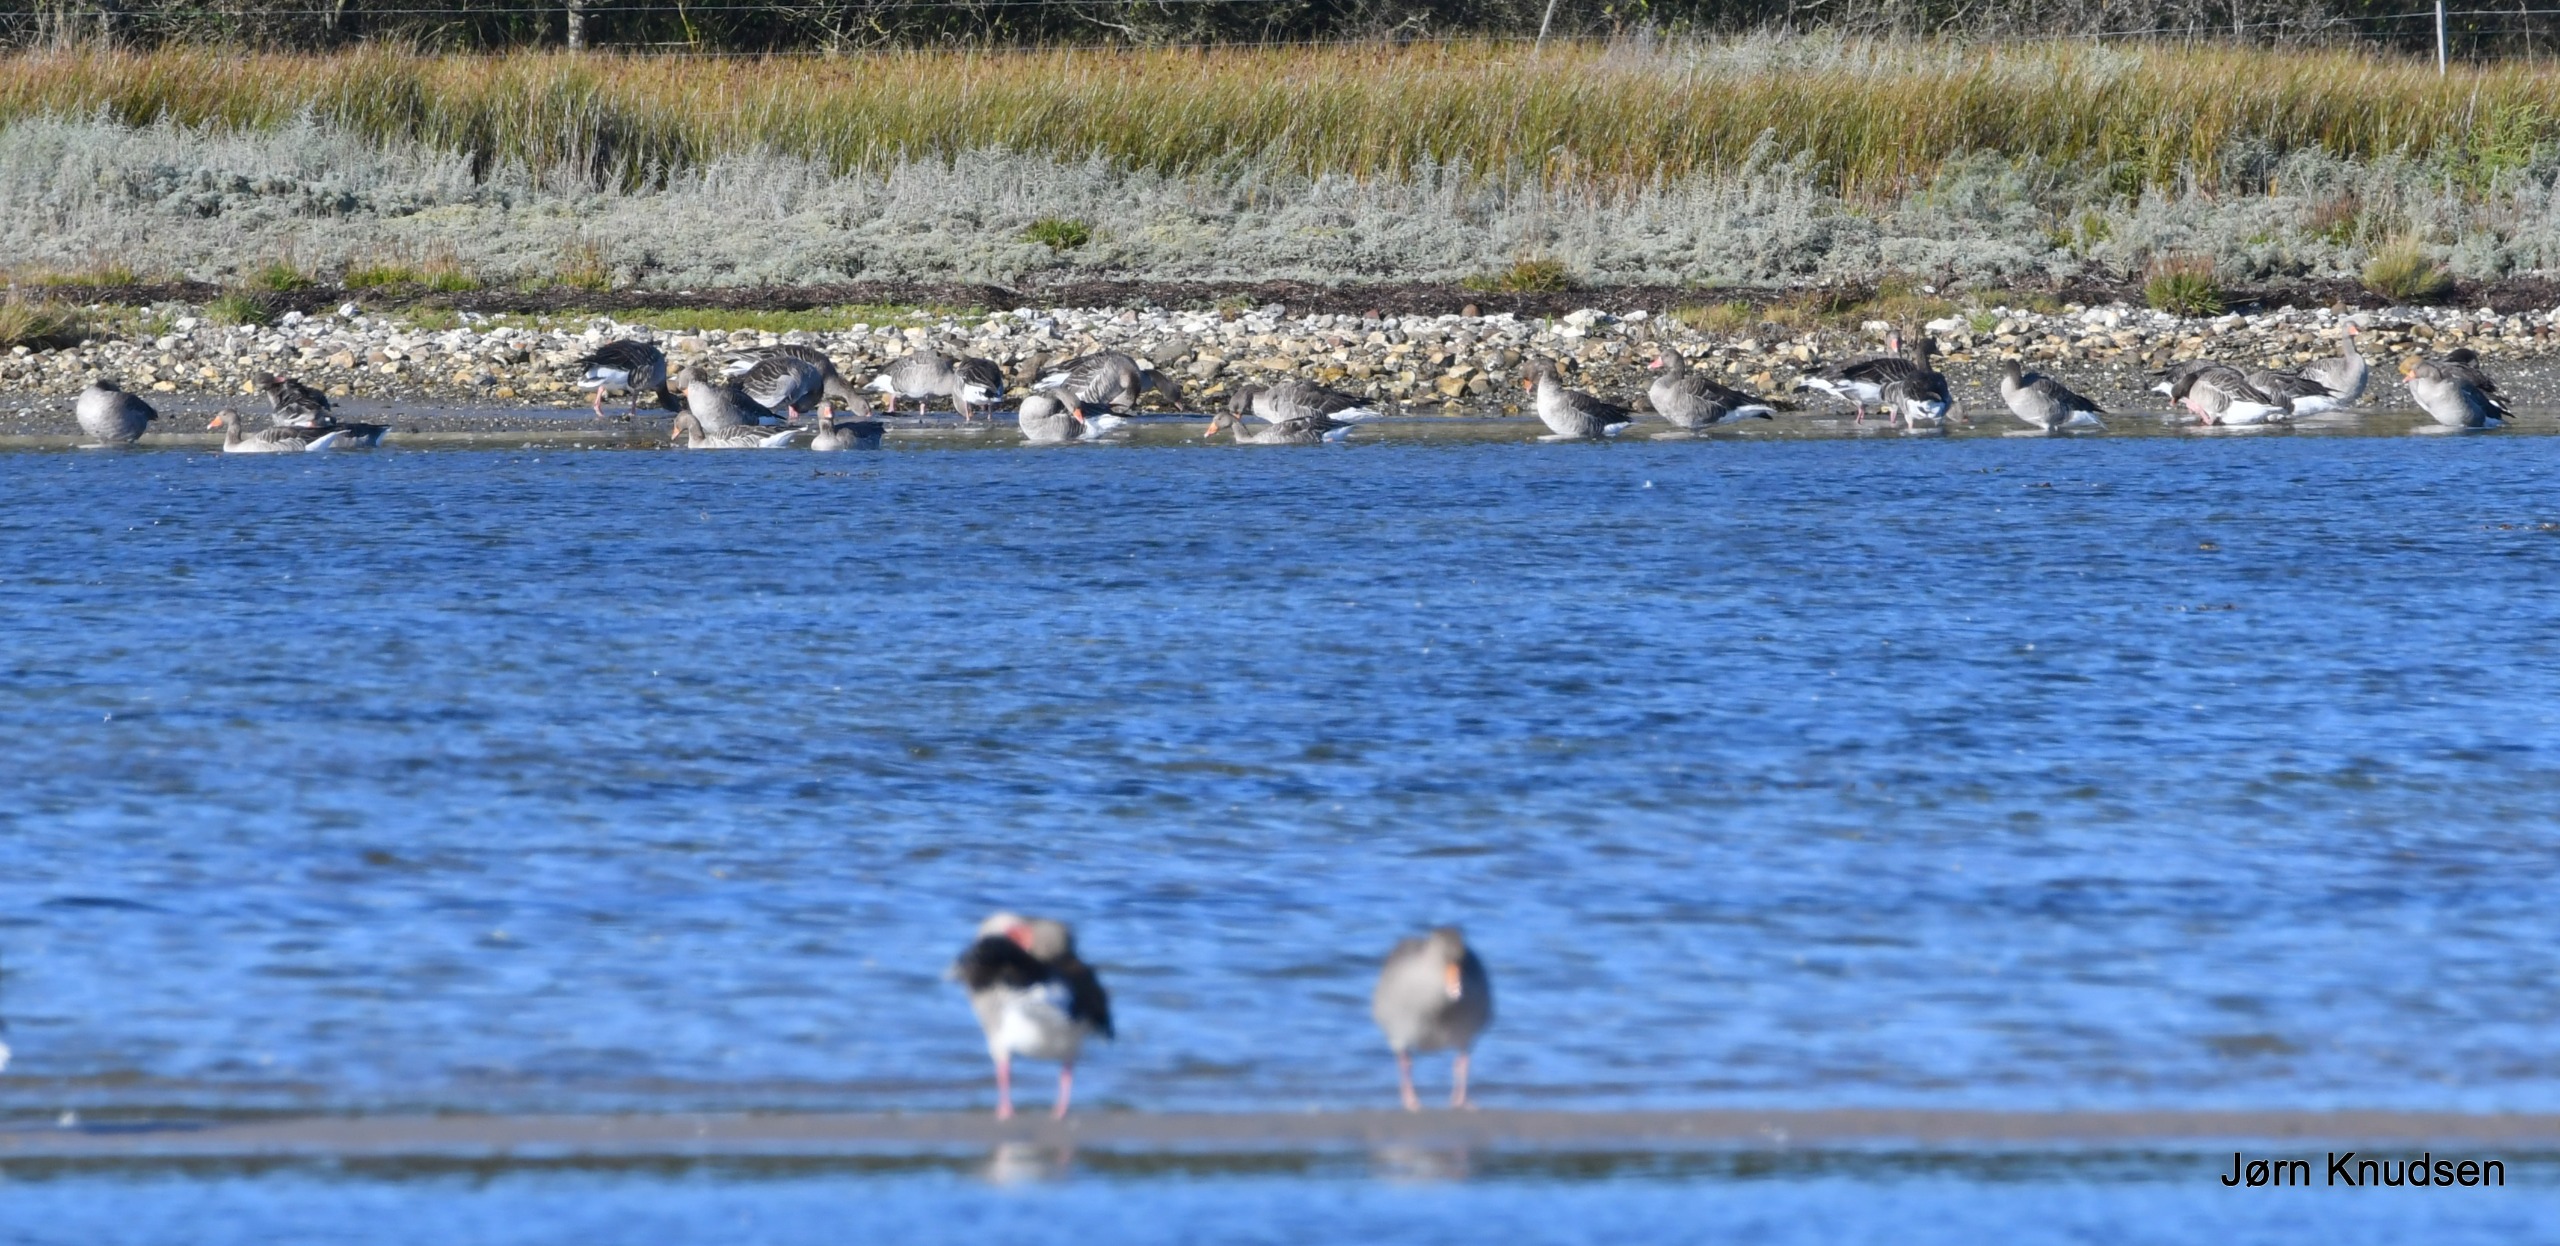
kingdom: Animalia
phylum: Chordata
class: Aves
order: Anseriformes
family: Anatidae
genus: Anser
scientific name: Anser anser
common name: Grågås
